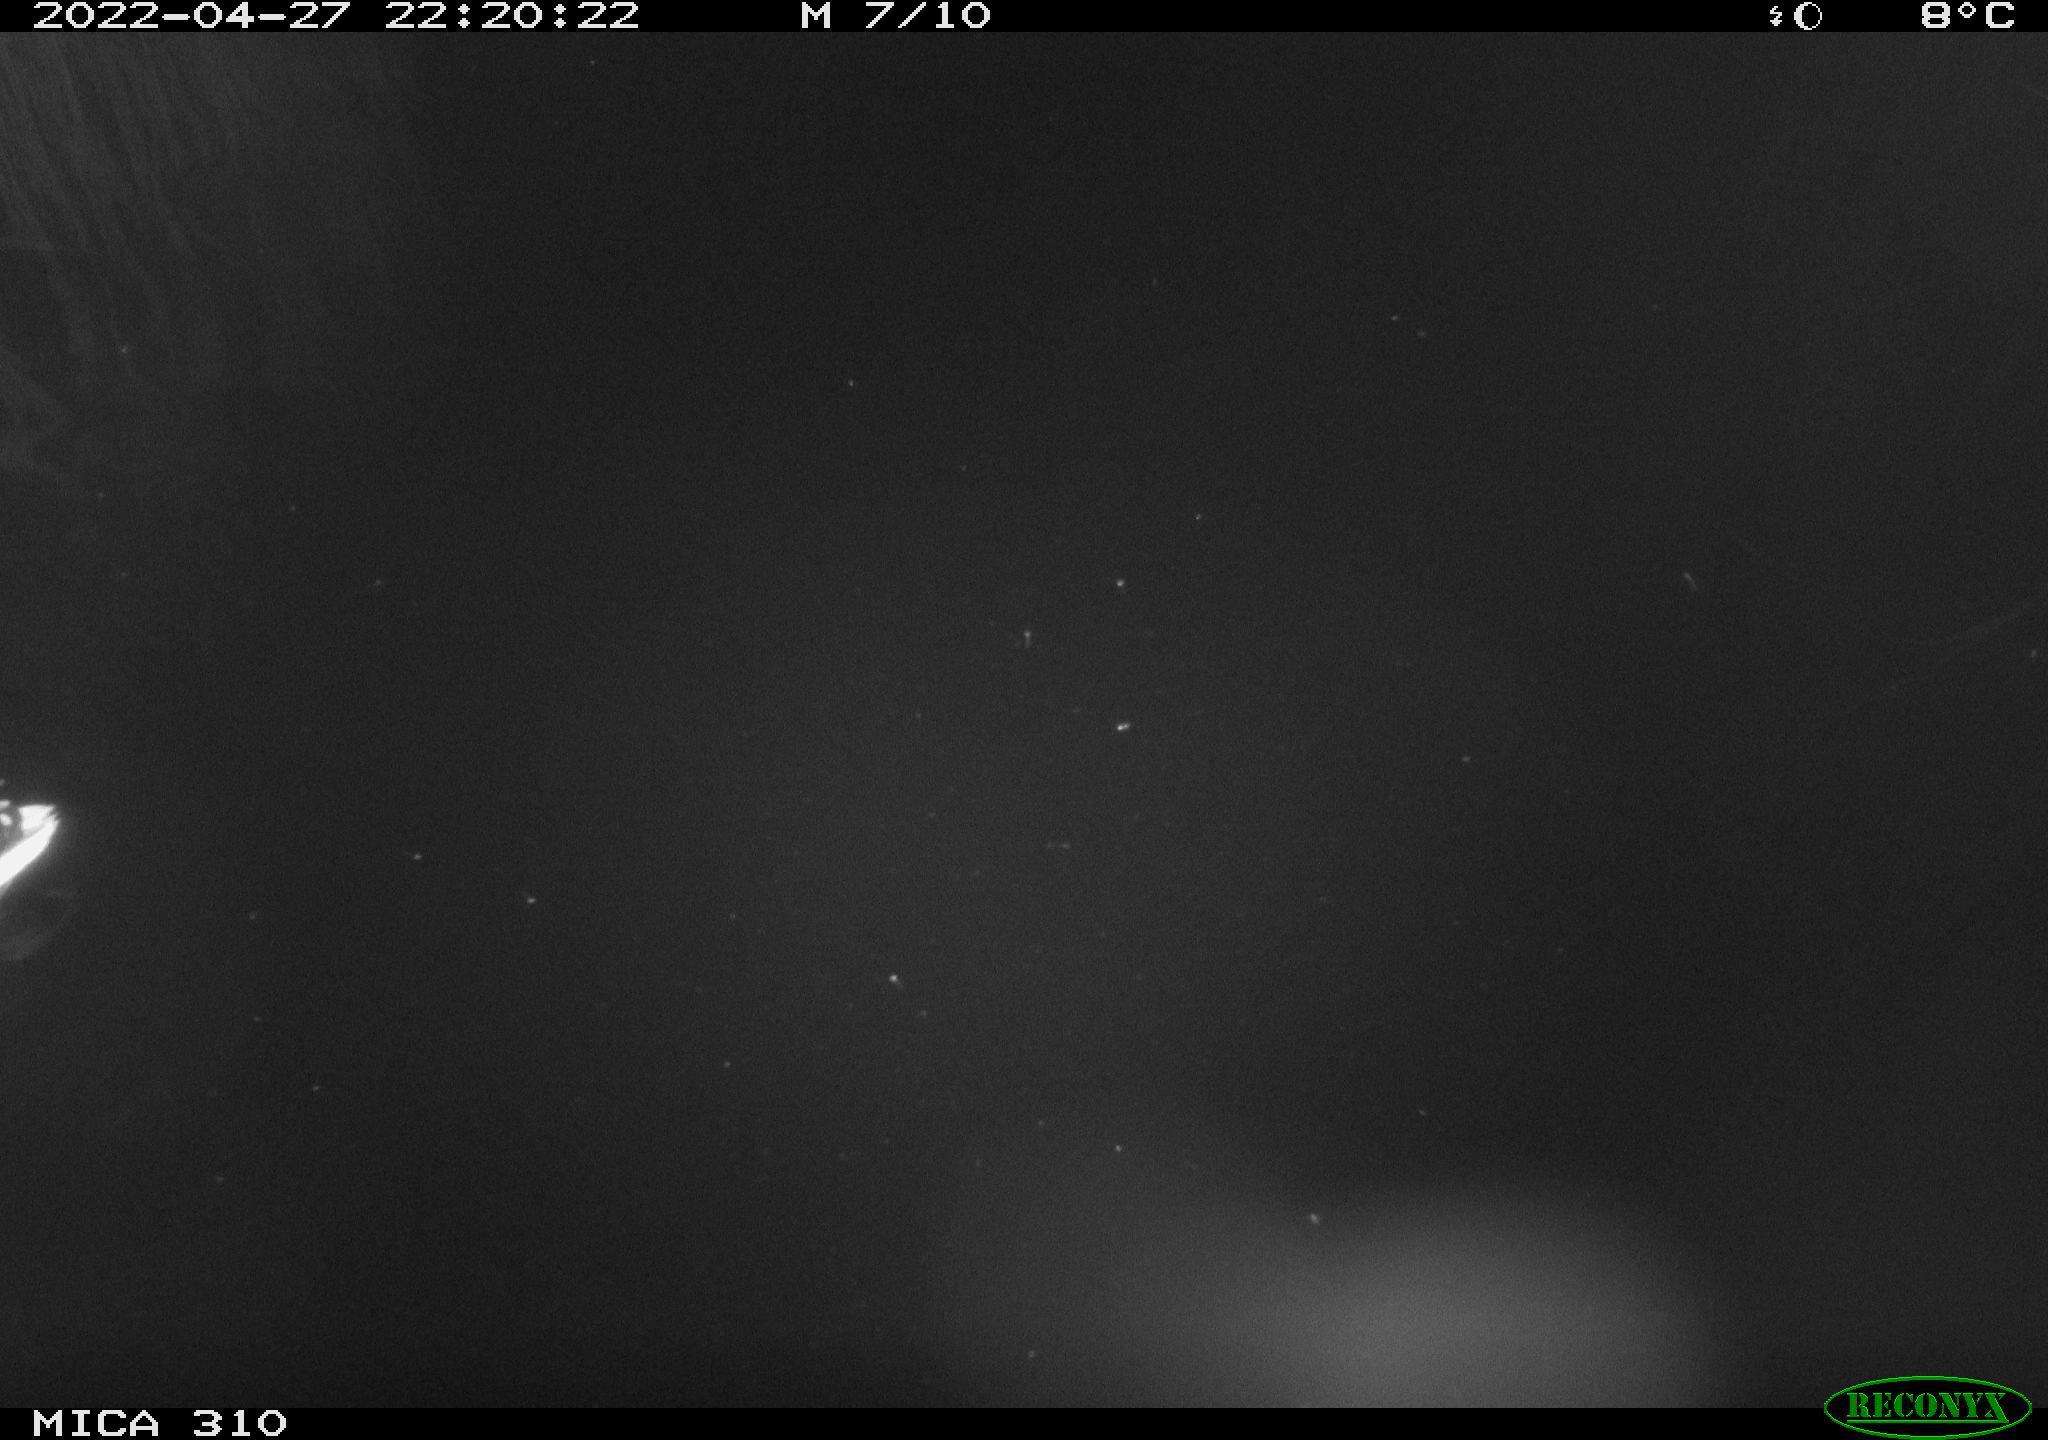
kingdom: Animalia
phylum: Chordata
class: Aves
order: Anseriformes
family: Anatidae
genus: Anas
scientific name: Anas platyrhynchos
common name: Mallard
